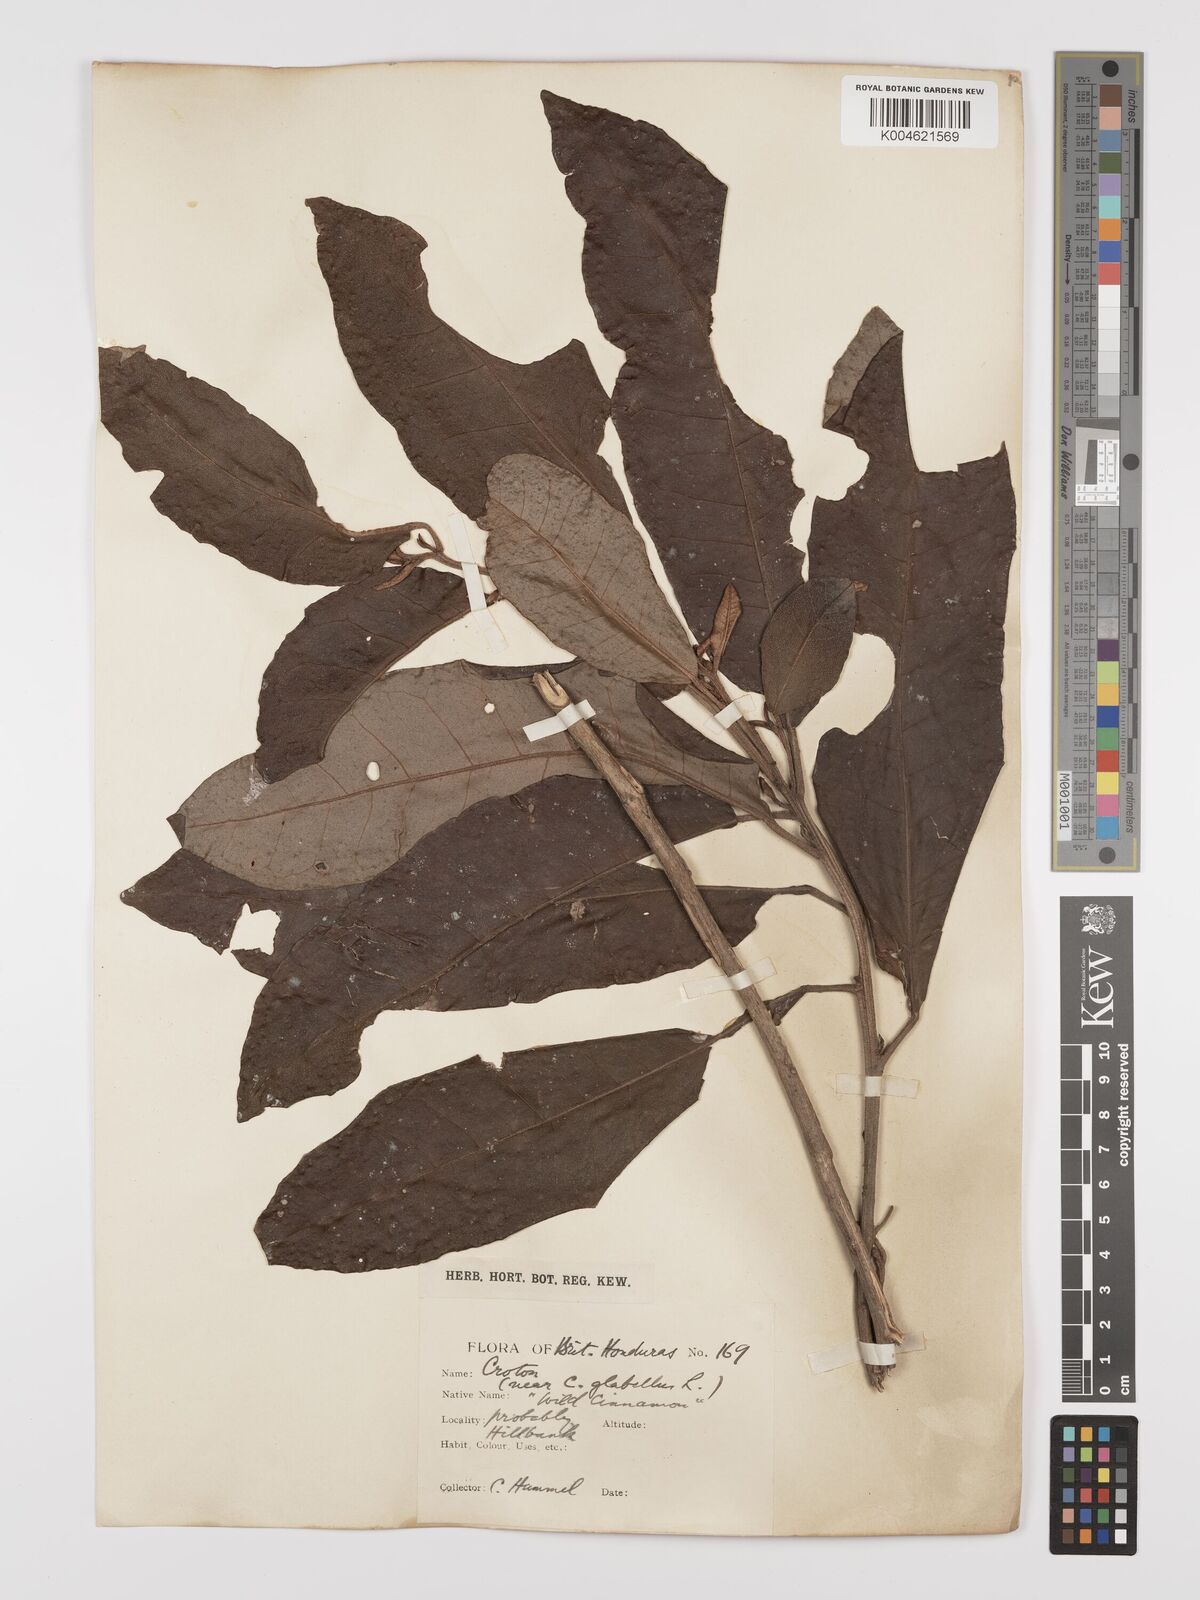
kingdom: Plantae
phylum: Tracheophyta
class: Magnoliopsida
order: Malpighiales
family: Euphorbiaceae
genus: Croton
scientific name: Croton glabellus
